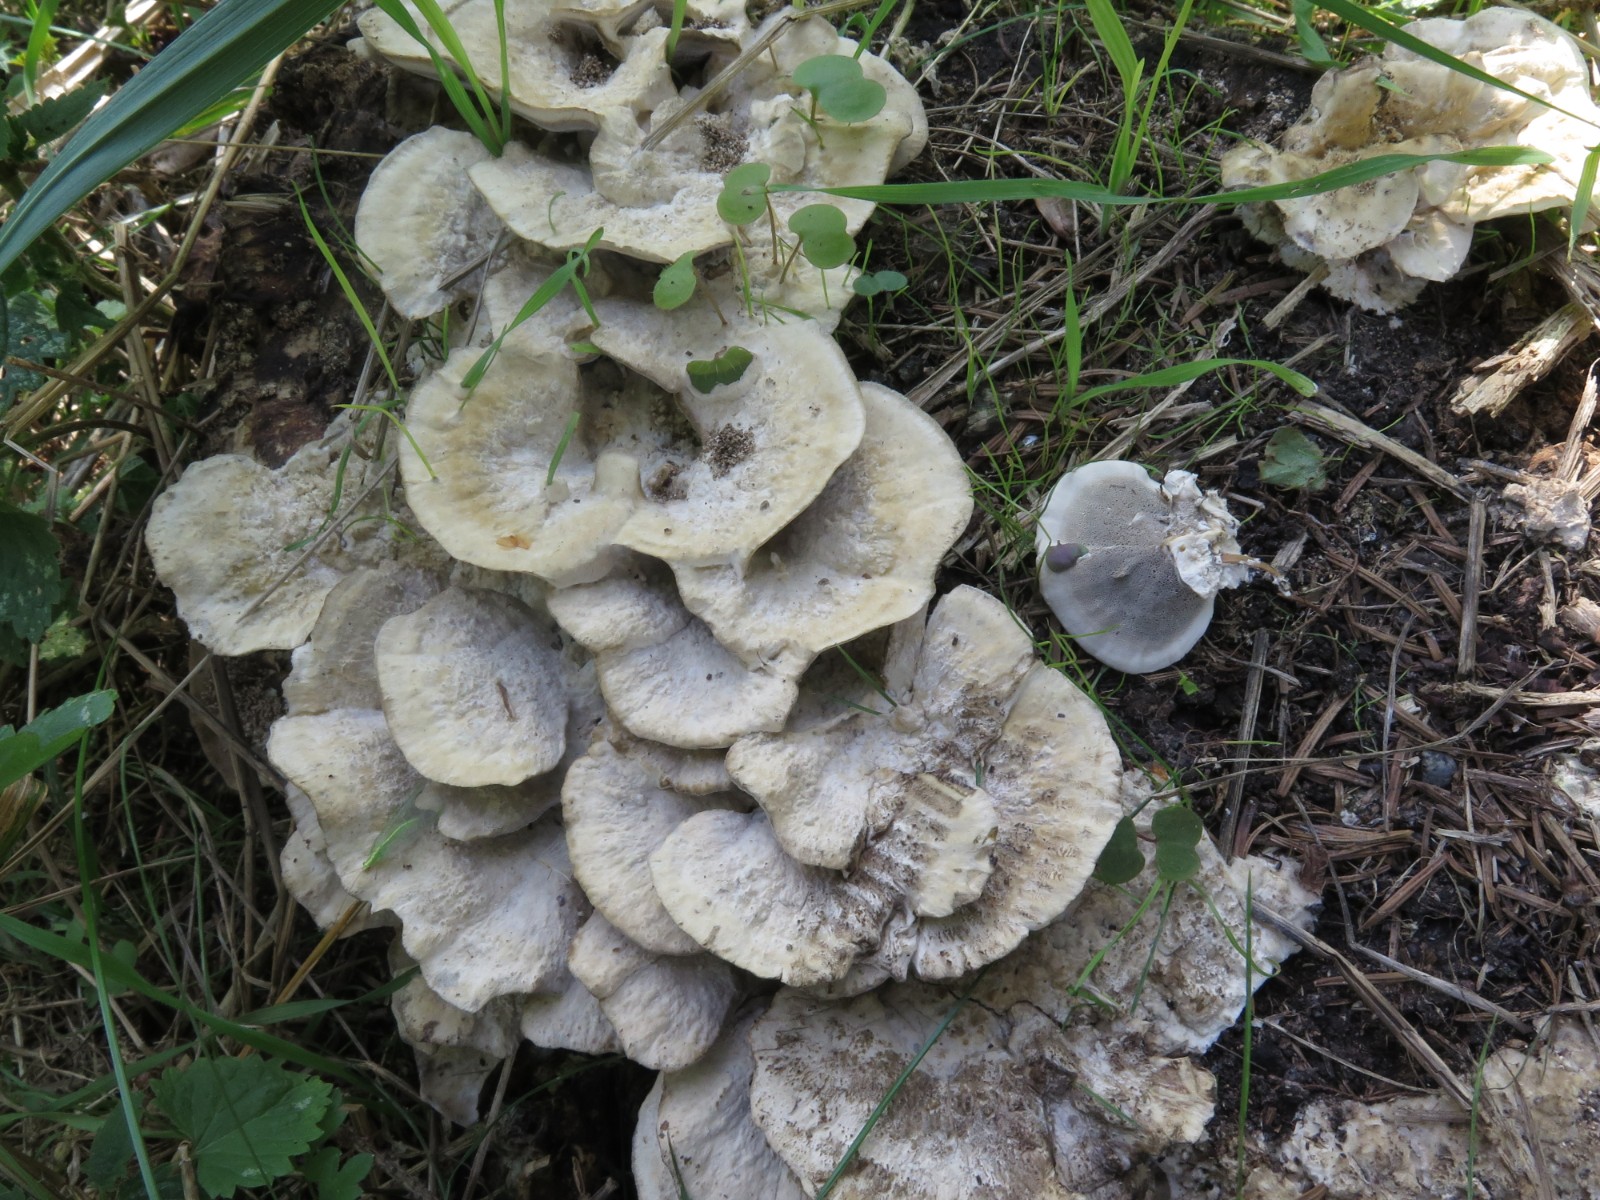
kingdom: Fungi
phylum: Basidiomycota
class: Agaricomycetes
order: Polyporales
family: Phanerochaetaceae
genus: Bjerkandera
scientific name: Bjerkandera fumosa
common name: grågul sodporesvamp
